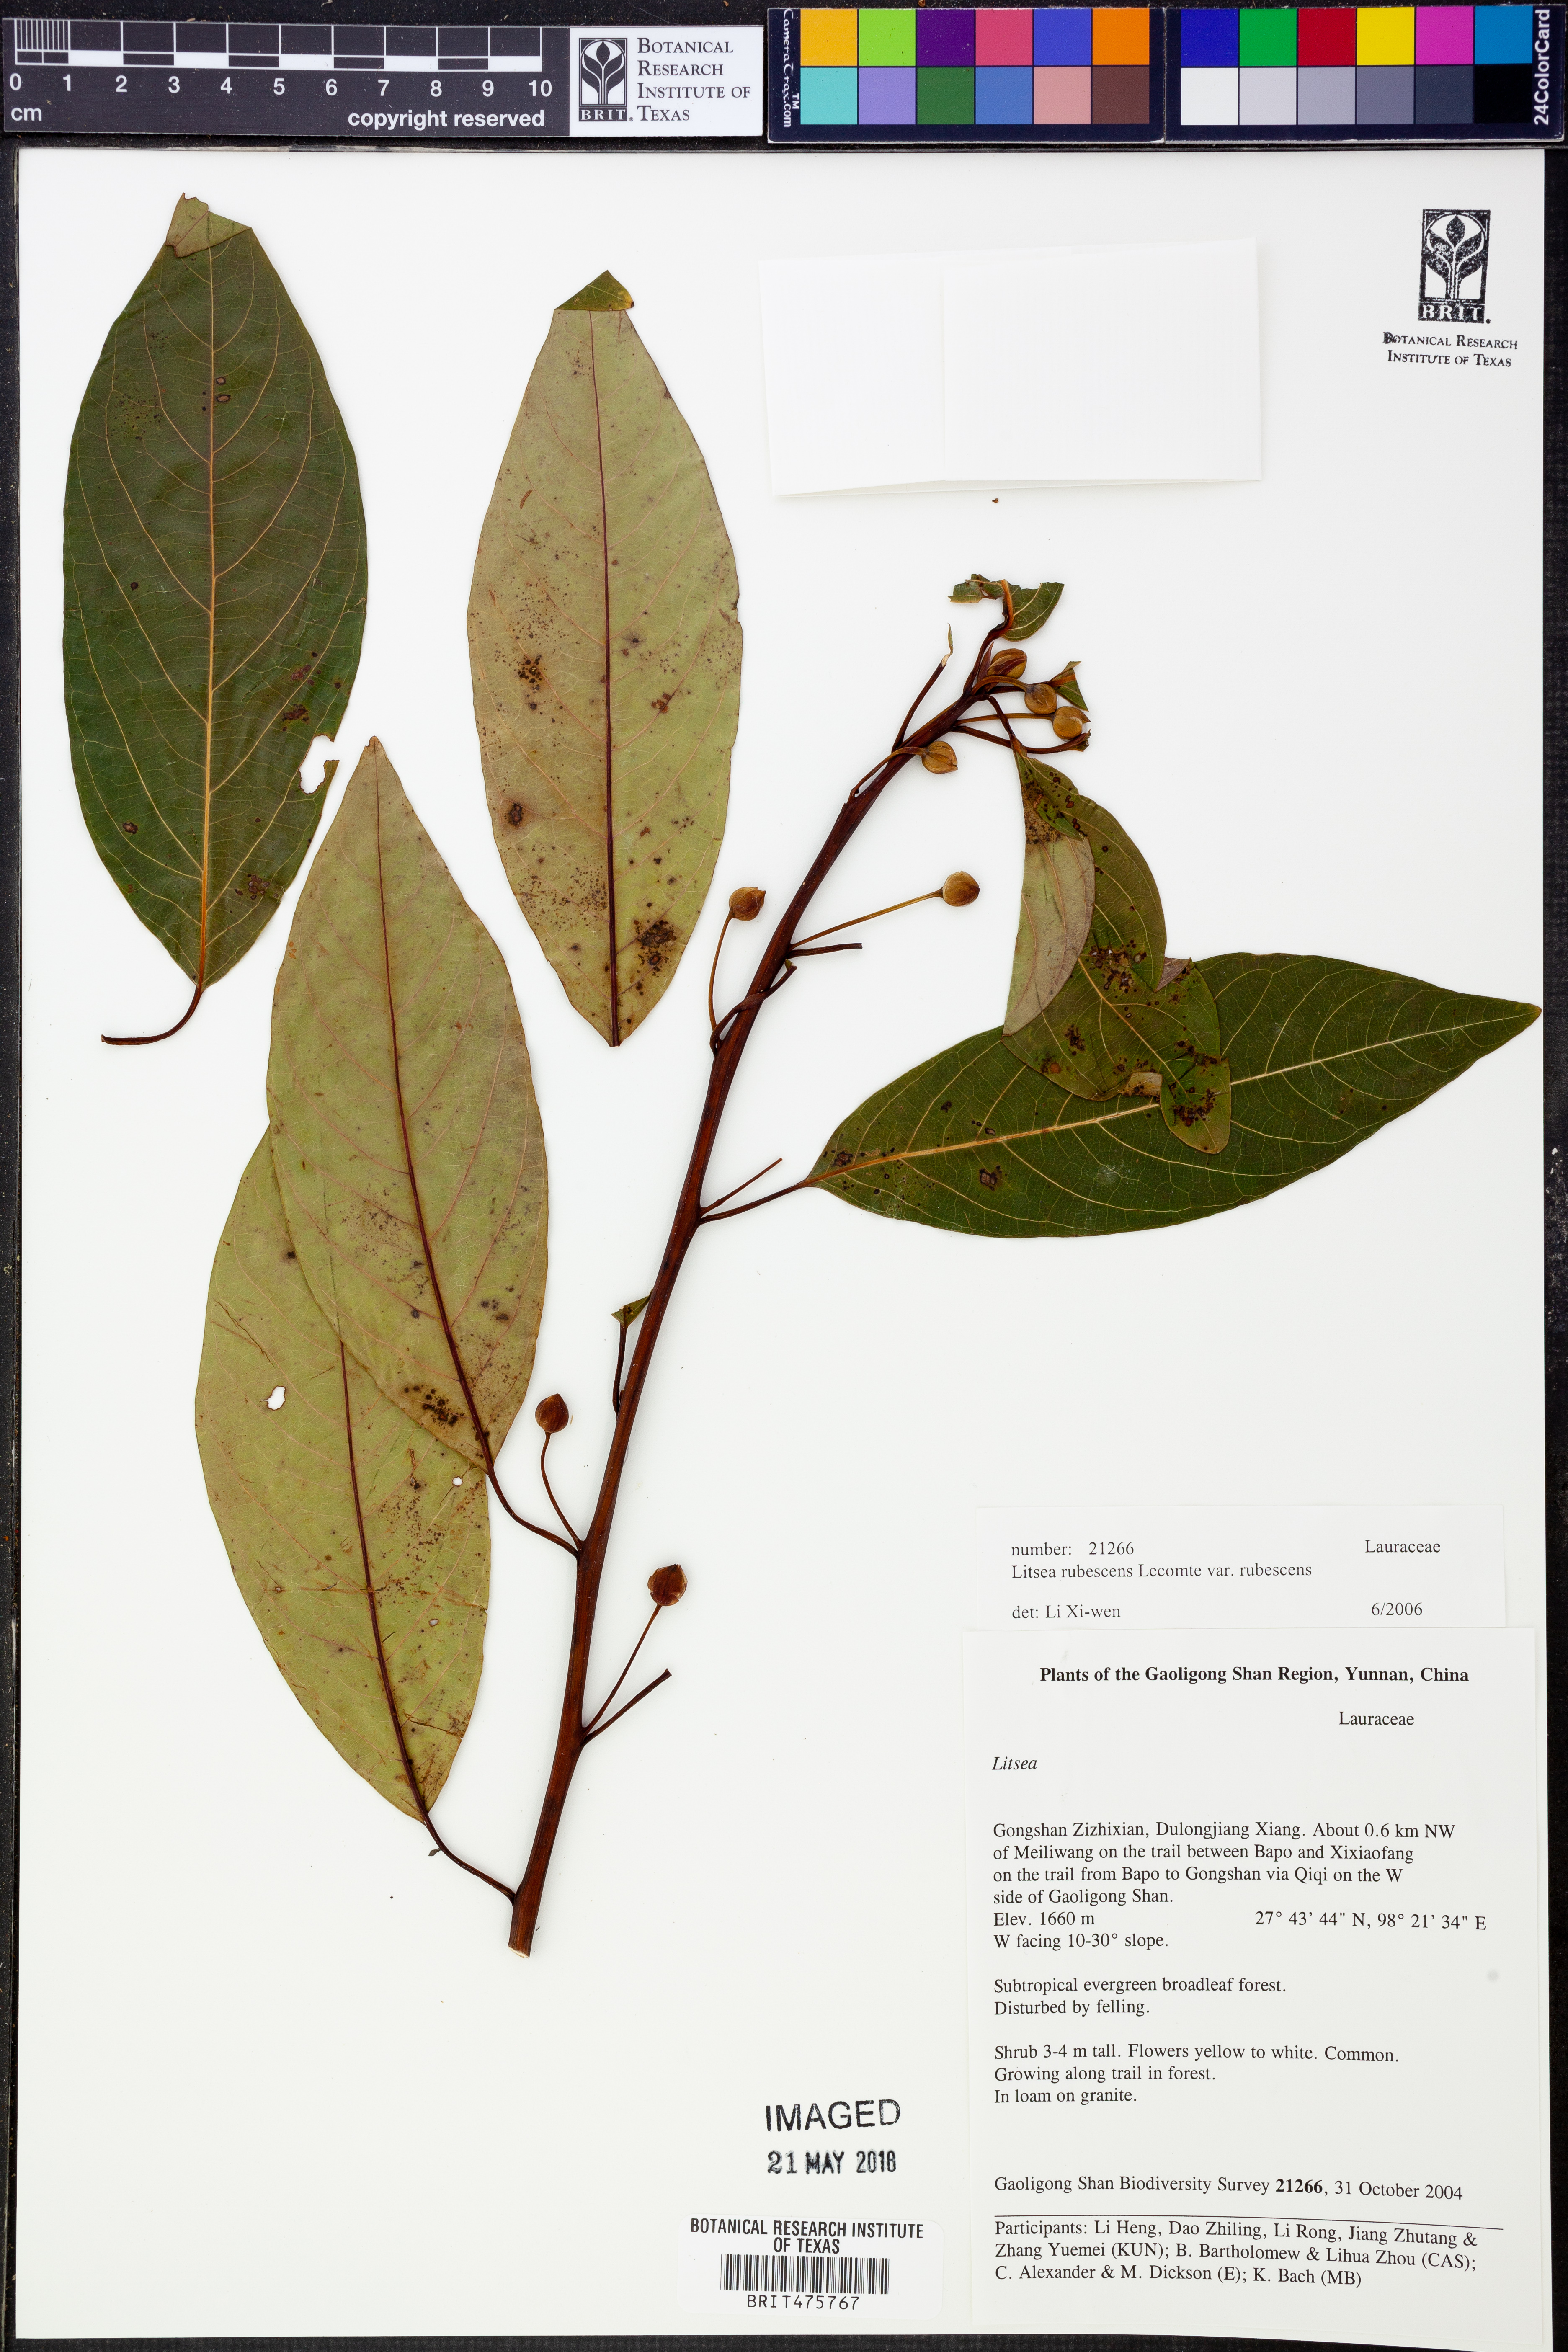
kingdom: Plantae
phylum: Tracheophyta
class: Magnoliopsida
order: Laurales
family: Lauraceae
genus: Litsea
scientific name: Litsea rubescens
